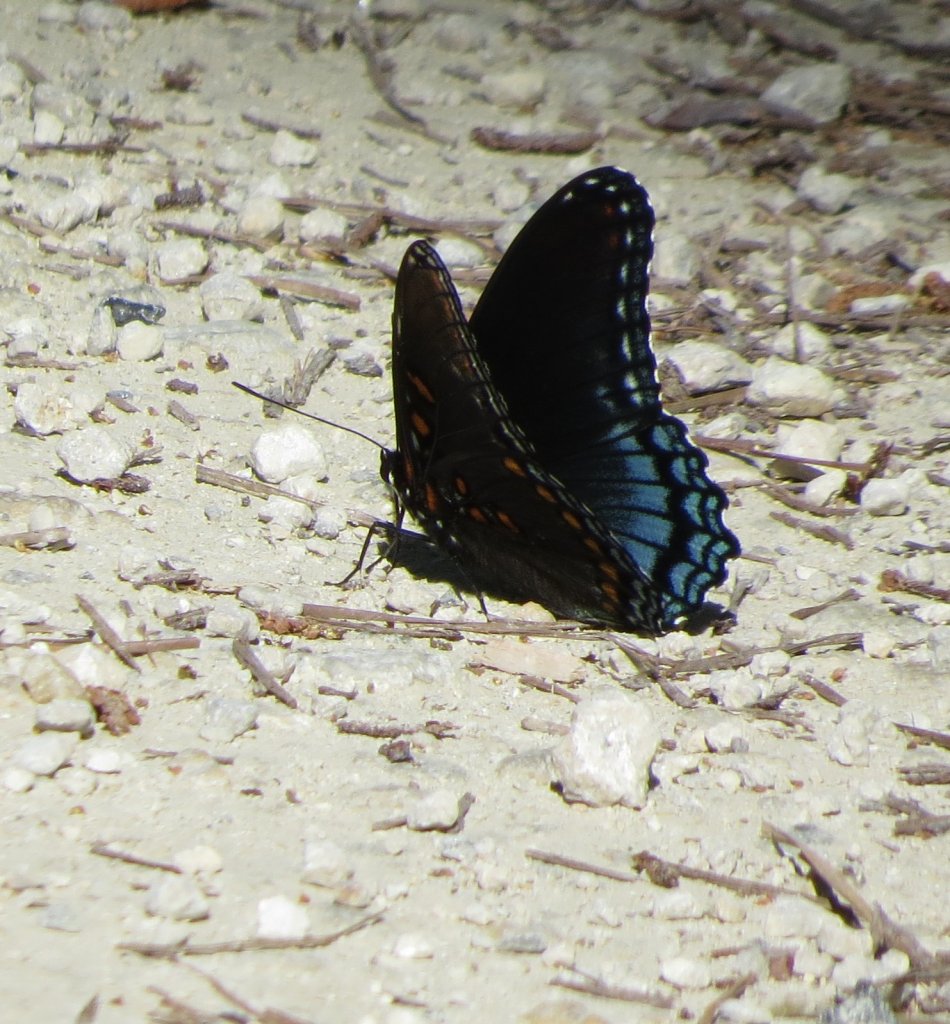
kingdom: Animalia
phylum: Arthropoda
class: Insecta
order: Lepidoptera
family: Nymphalidae
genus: Limenitis
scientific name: Limenitis astyanax
